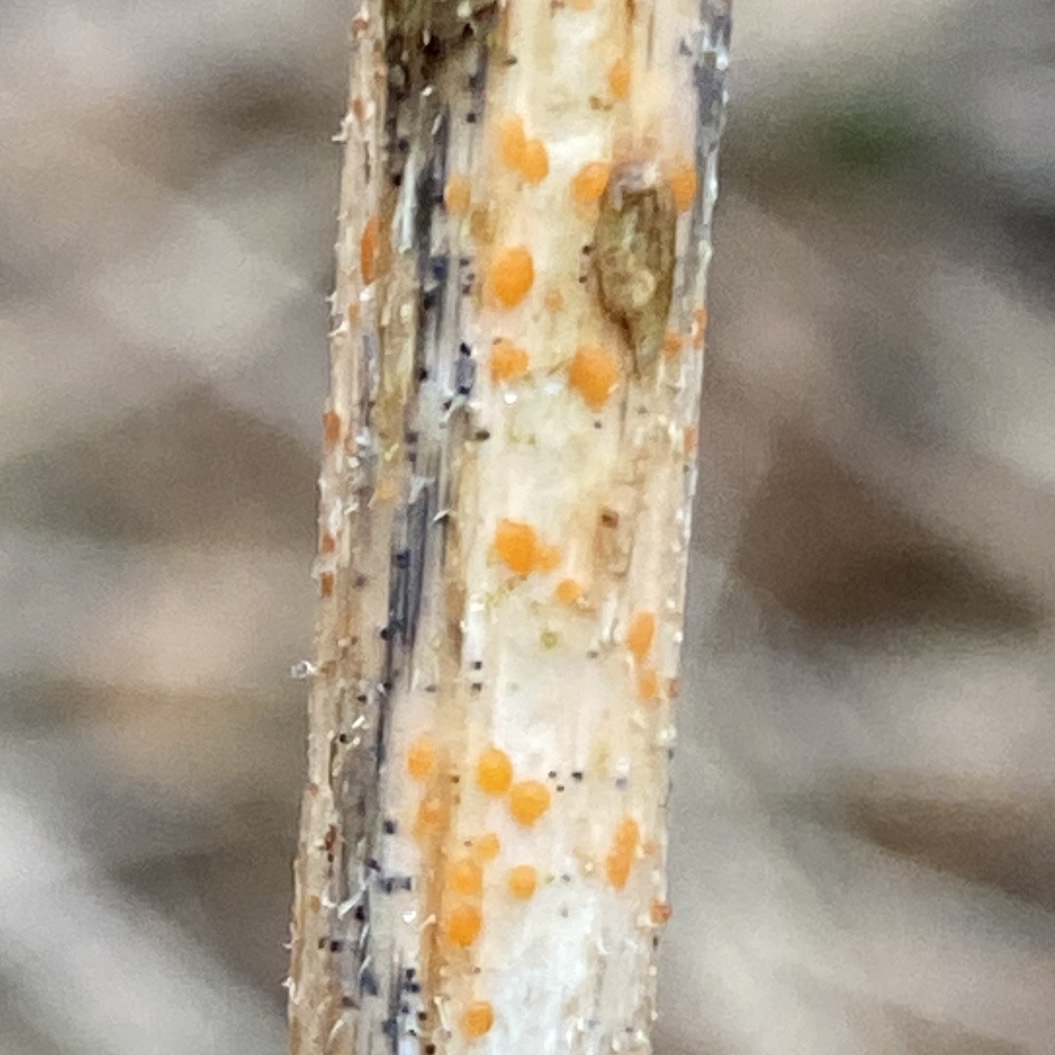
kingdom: Fungi
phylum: Ascomycota
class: Leotiomycetes
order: Helotiales
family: Calloriaceae
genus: Calloria
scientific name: Calloria urticae
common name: nælde-orangeskive
